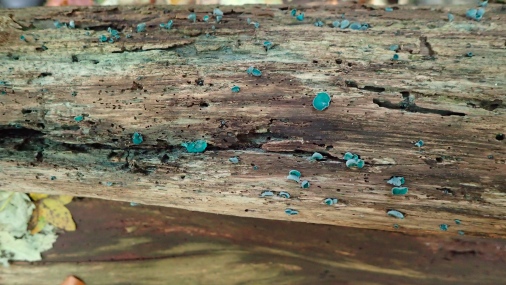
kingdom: Fungi
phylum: Ascomycota
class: Leotiomycetes
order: Helotiales
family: Chlorociboriaceae
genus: Chlorociboria
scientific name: Chlorociboria aeruginascens
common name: almindelig grønskive
